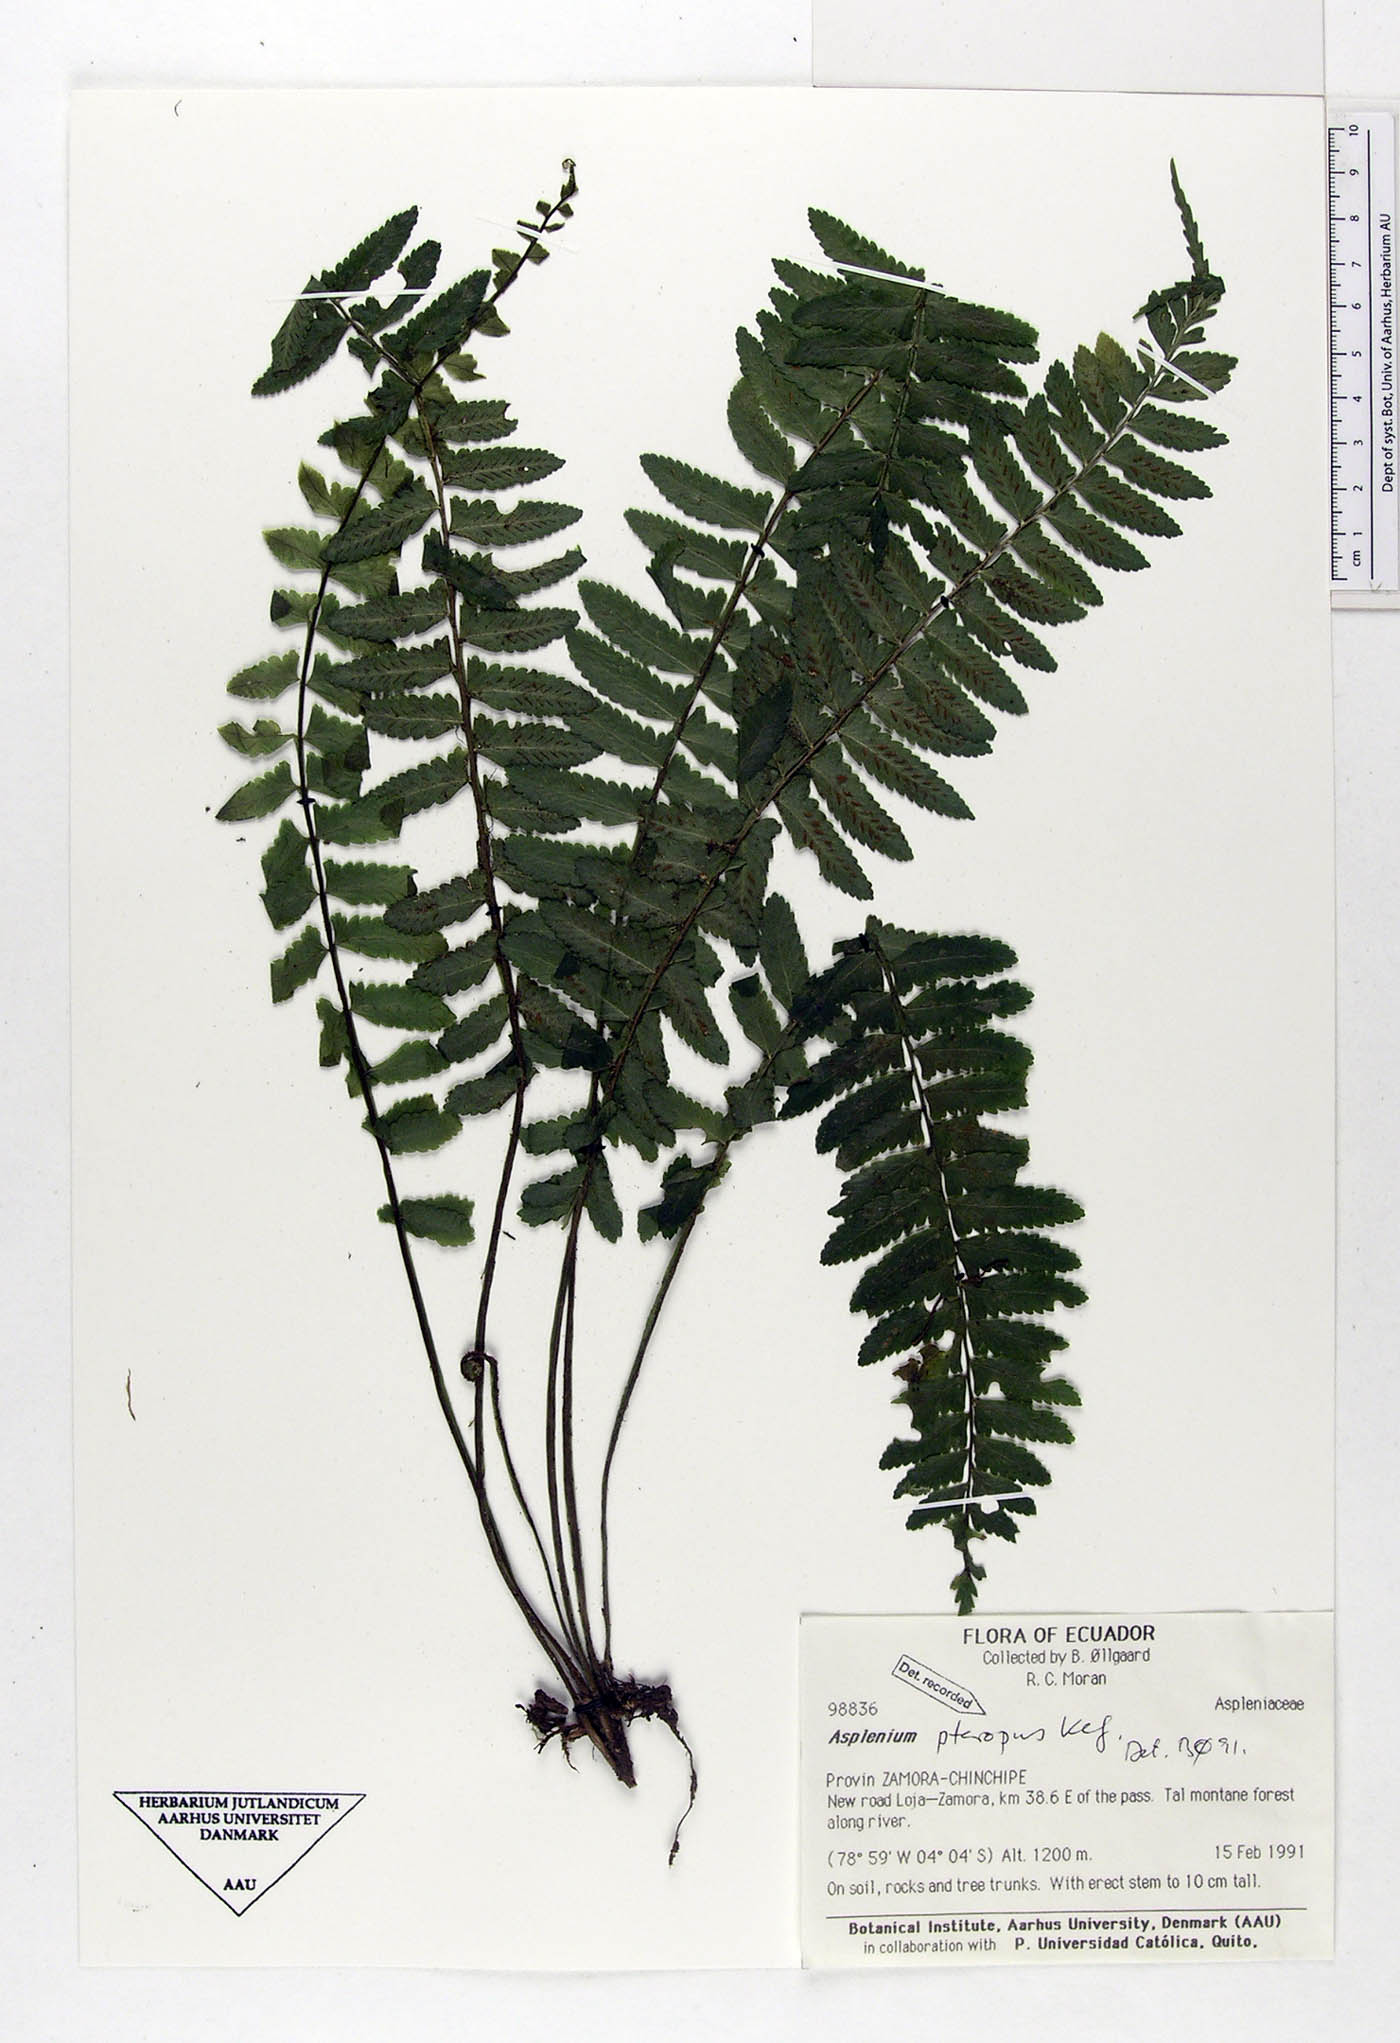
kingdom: Plantae
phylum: Tracheophyta
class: Polypodiopsida
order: Polypodiales
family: Aspleniaceae
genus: Asplenium
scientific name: Asplenium pteropus
